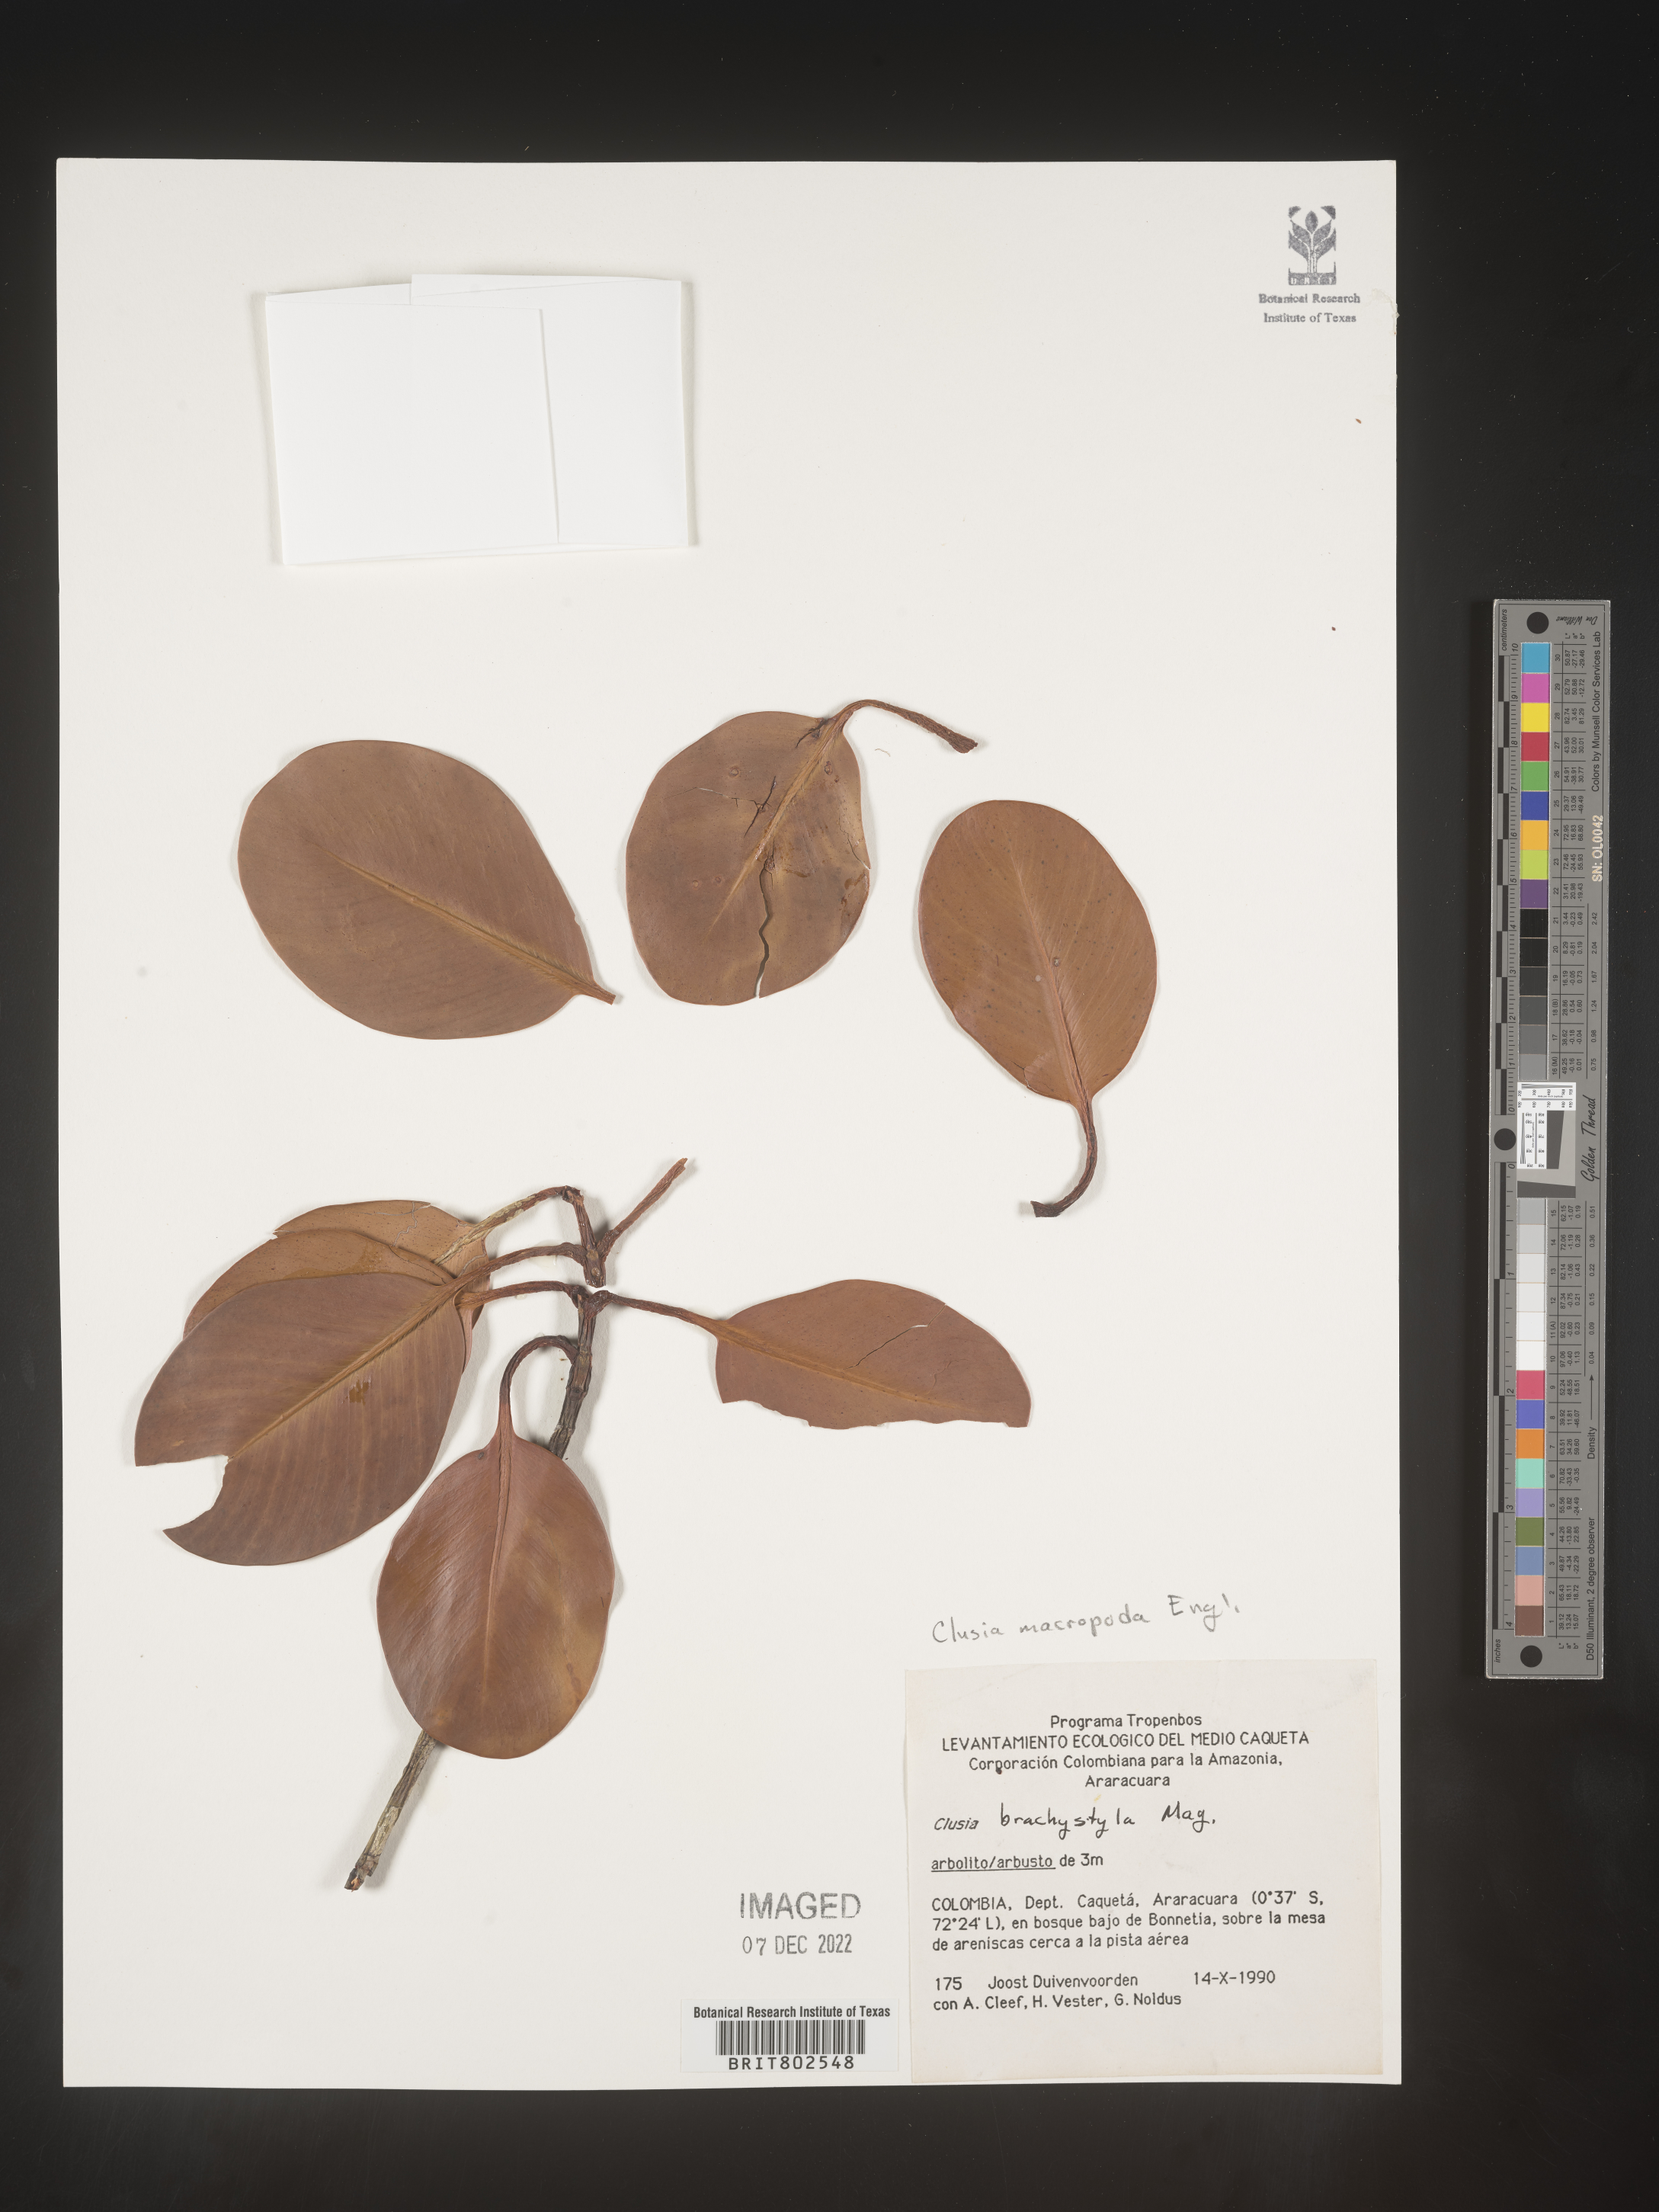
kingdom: Plantae
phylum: Tracheophyta
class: Magnoliopsida
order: Malpighiales
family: Clusiaceae
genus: Clusia
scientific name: Clusia
